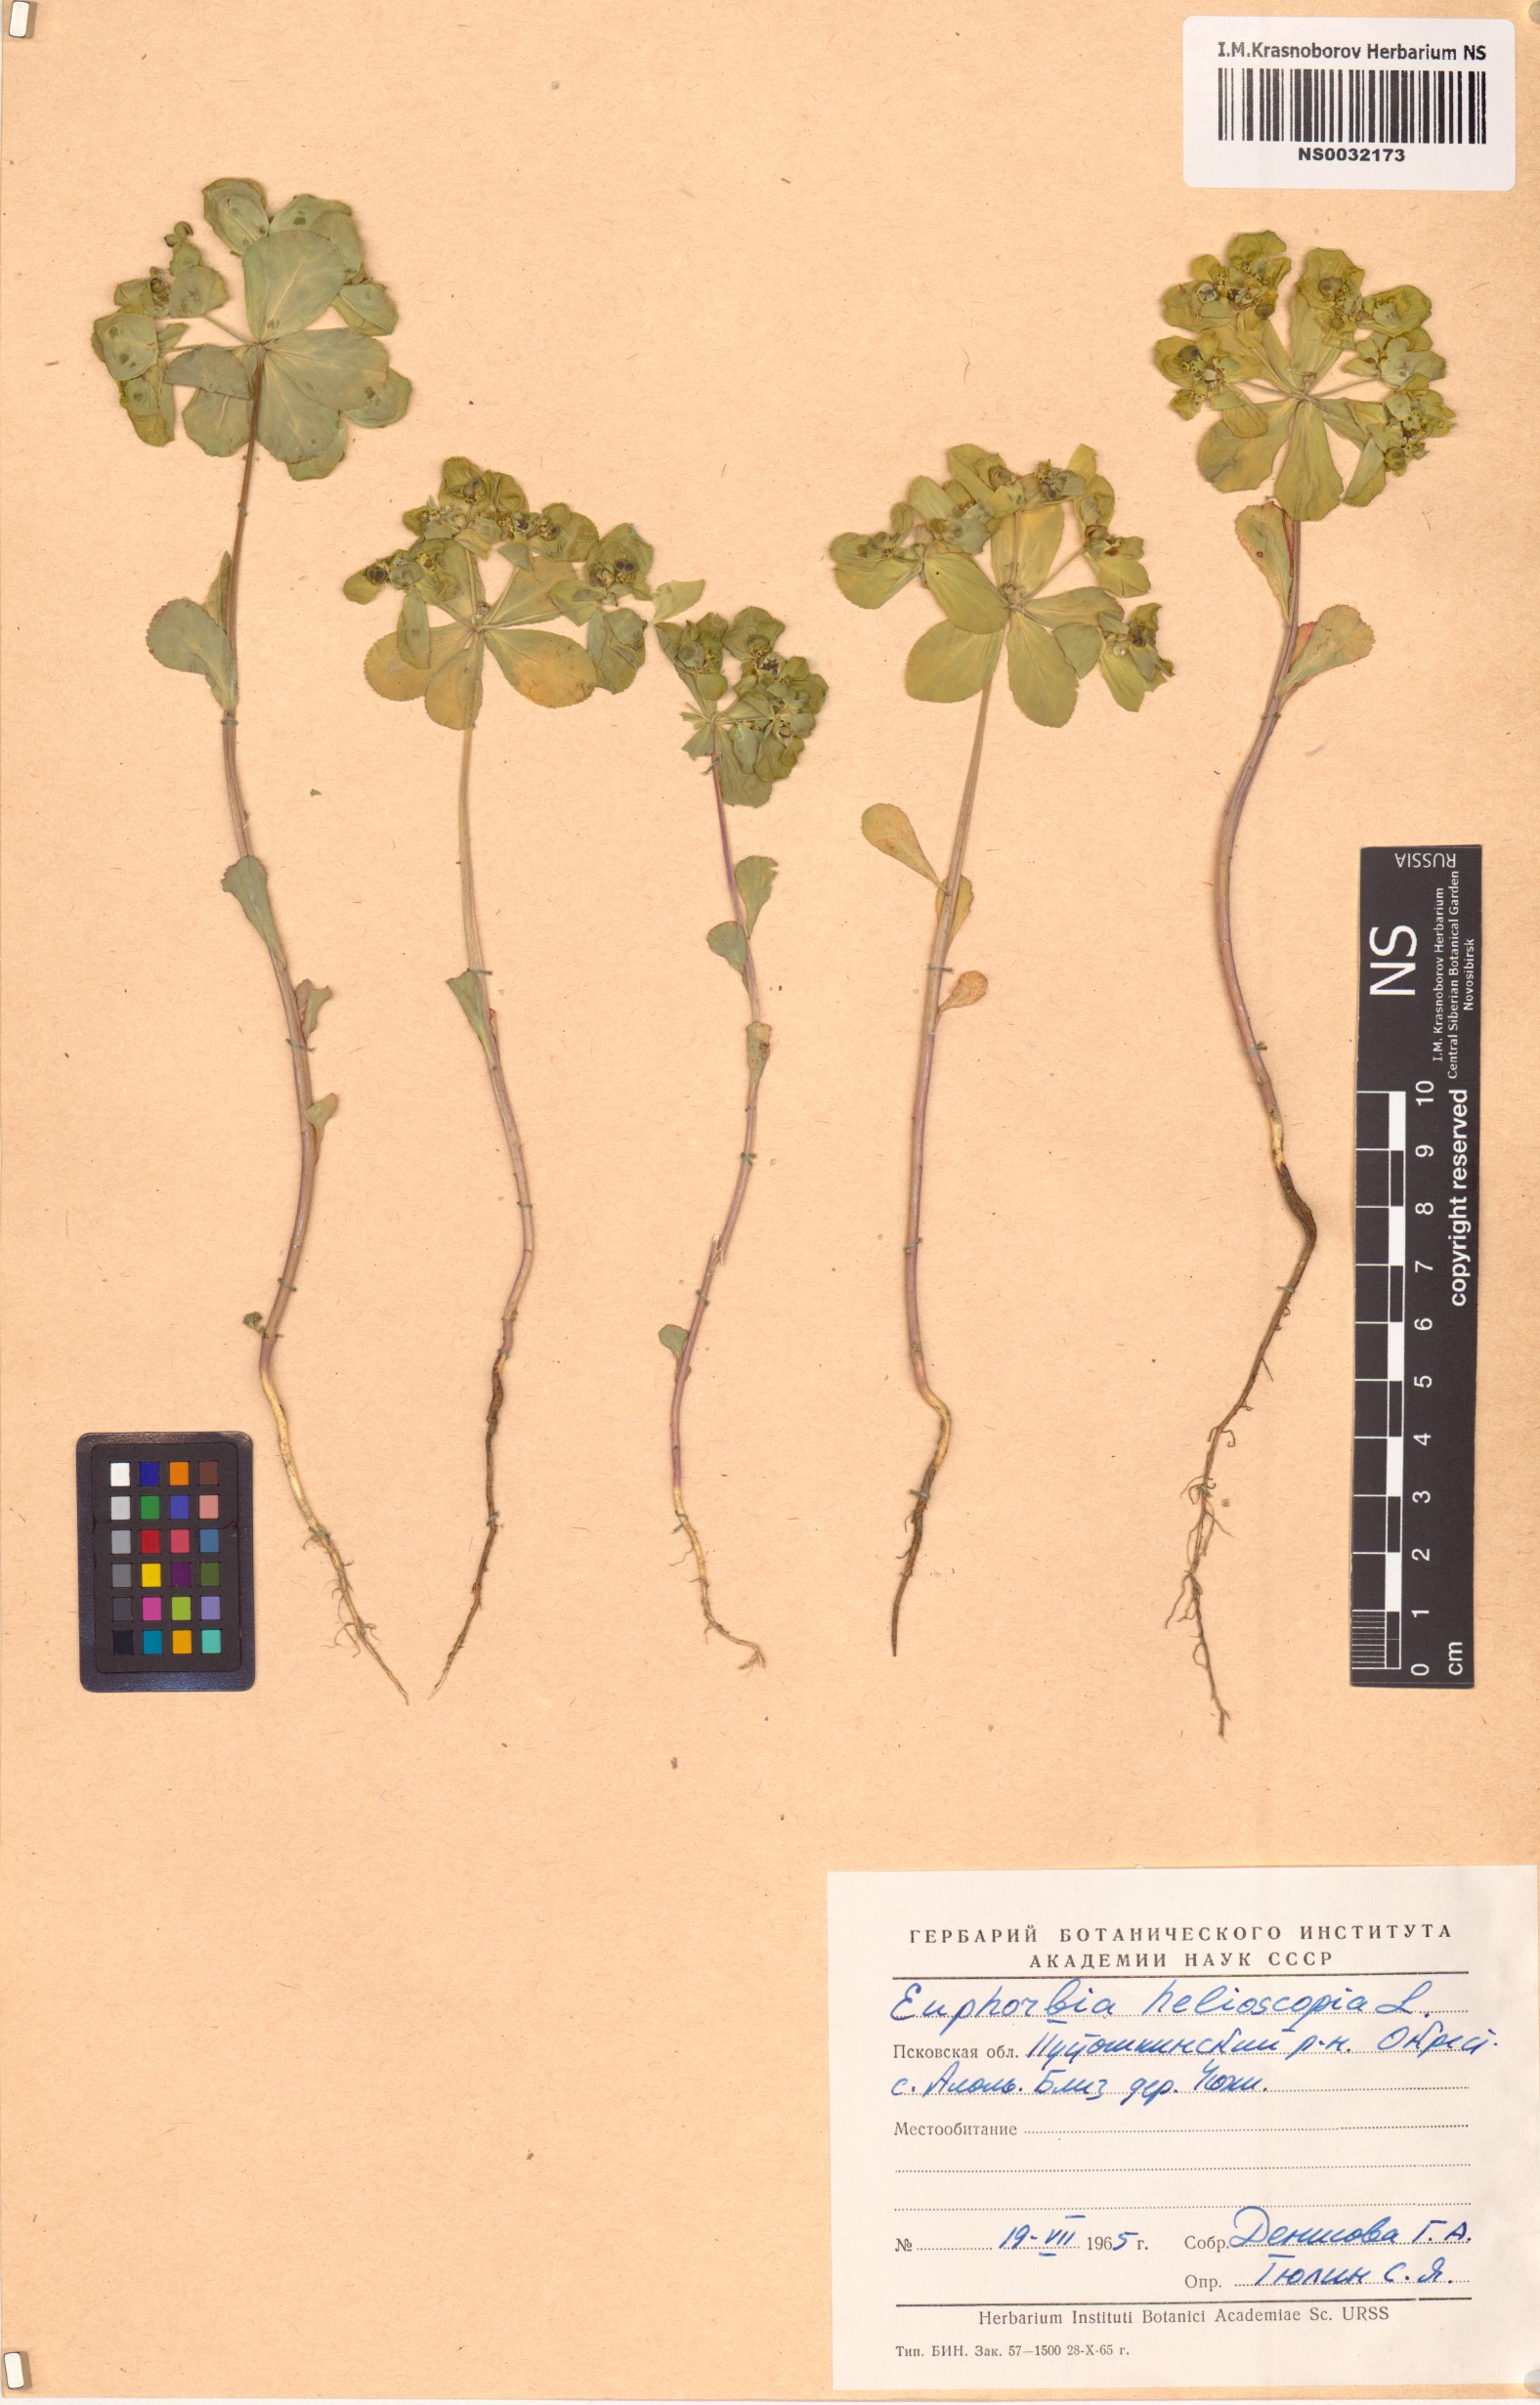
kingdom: Plantae
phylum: Tracheophyta
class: Magnoliopsida
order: Malpighiales
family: Euphorbiaceae
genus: Euphorbia
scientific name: Euphorbia helioscopia
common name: Sun spurge
